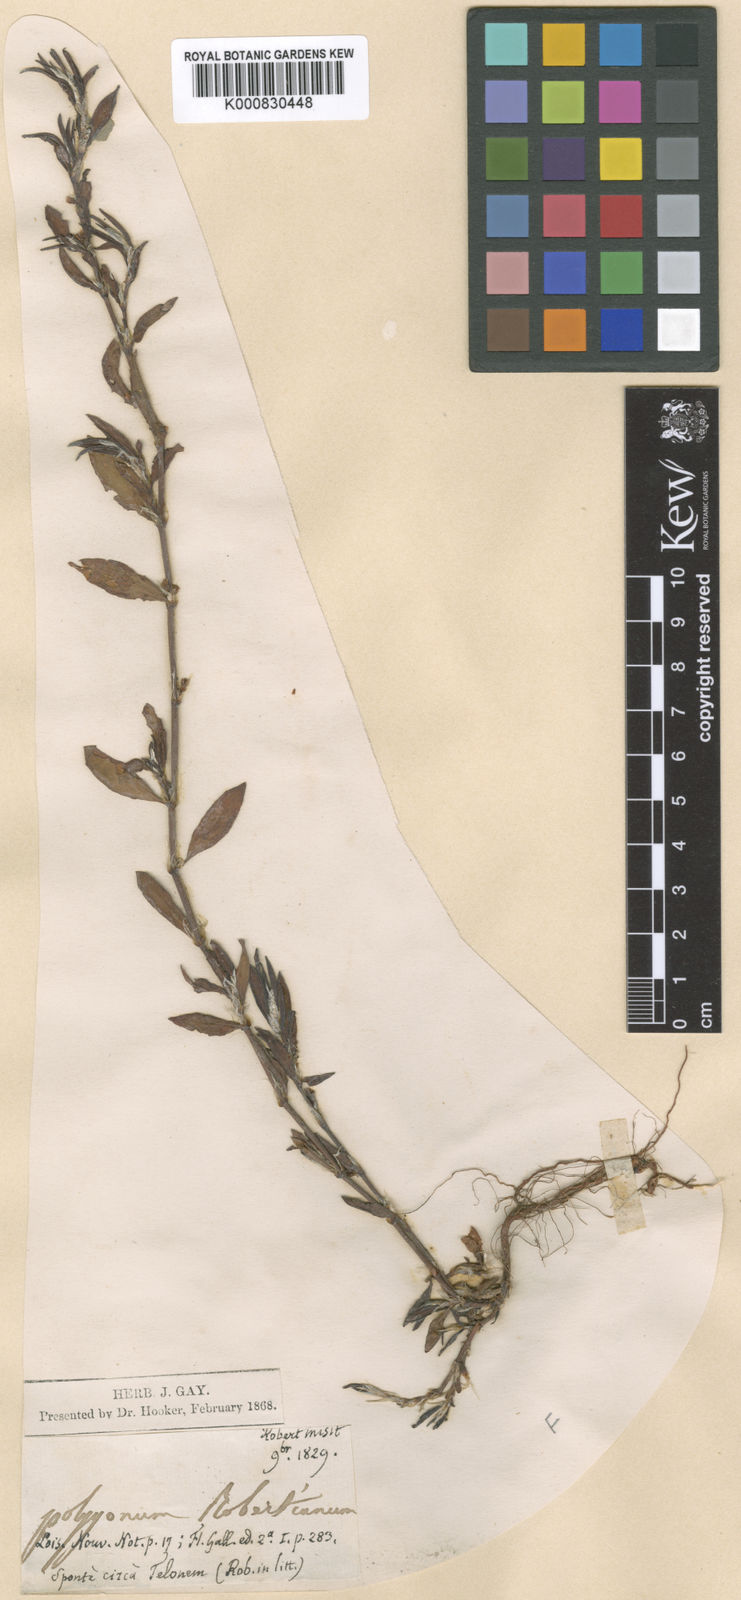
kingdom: Plantae
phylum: Tracheophyta
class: Magnoliopsida
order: Caryophyllales
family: Polygonaceae
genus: Polygonum
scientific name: Polygonum roberti
